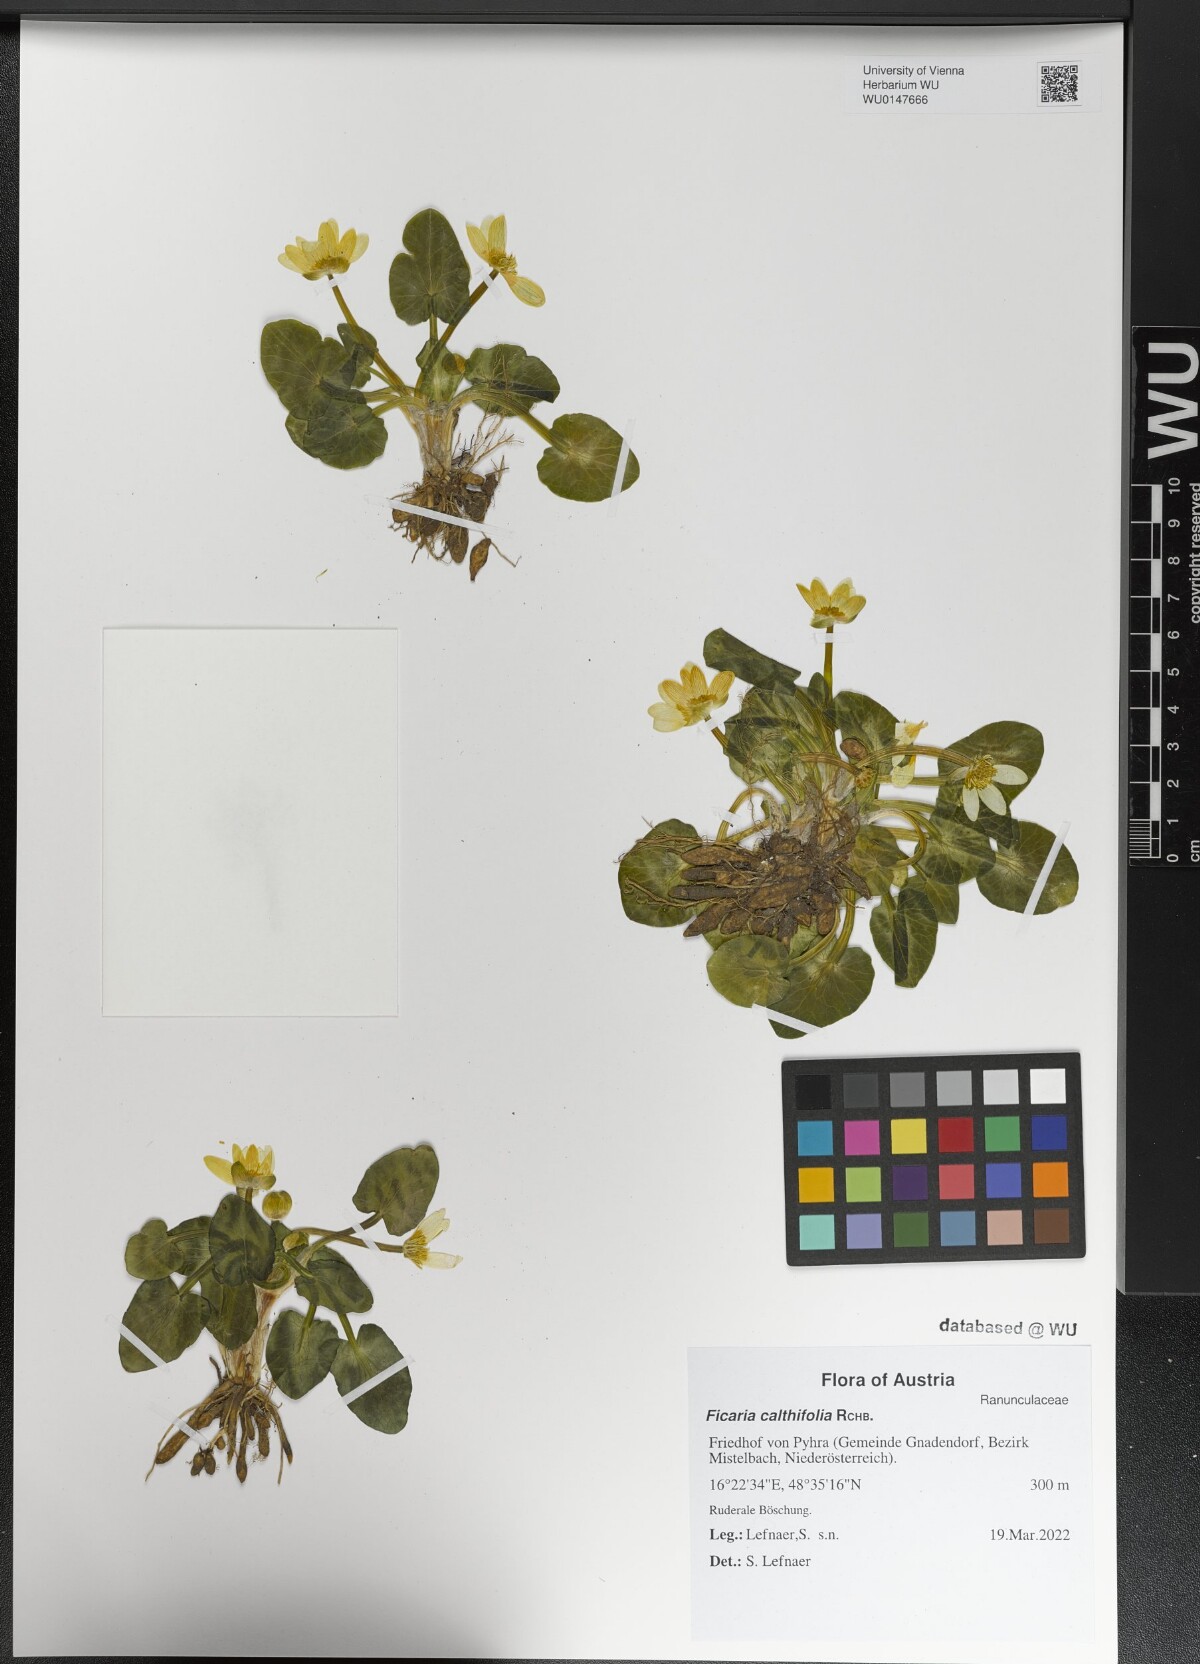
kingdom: Plantae
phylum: Tracheophyta
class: Magnoliopsida
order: Ranunculales
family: Ranunculaceae
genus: Ficaria
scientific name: Ficaria calthifolia
